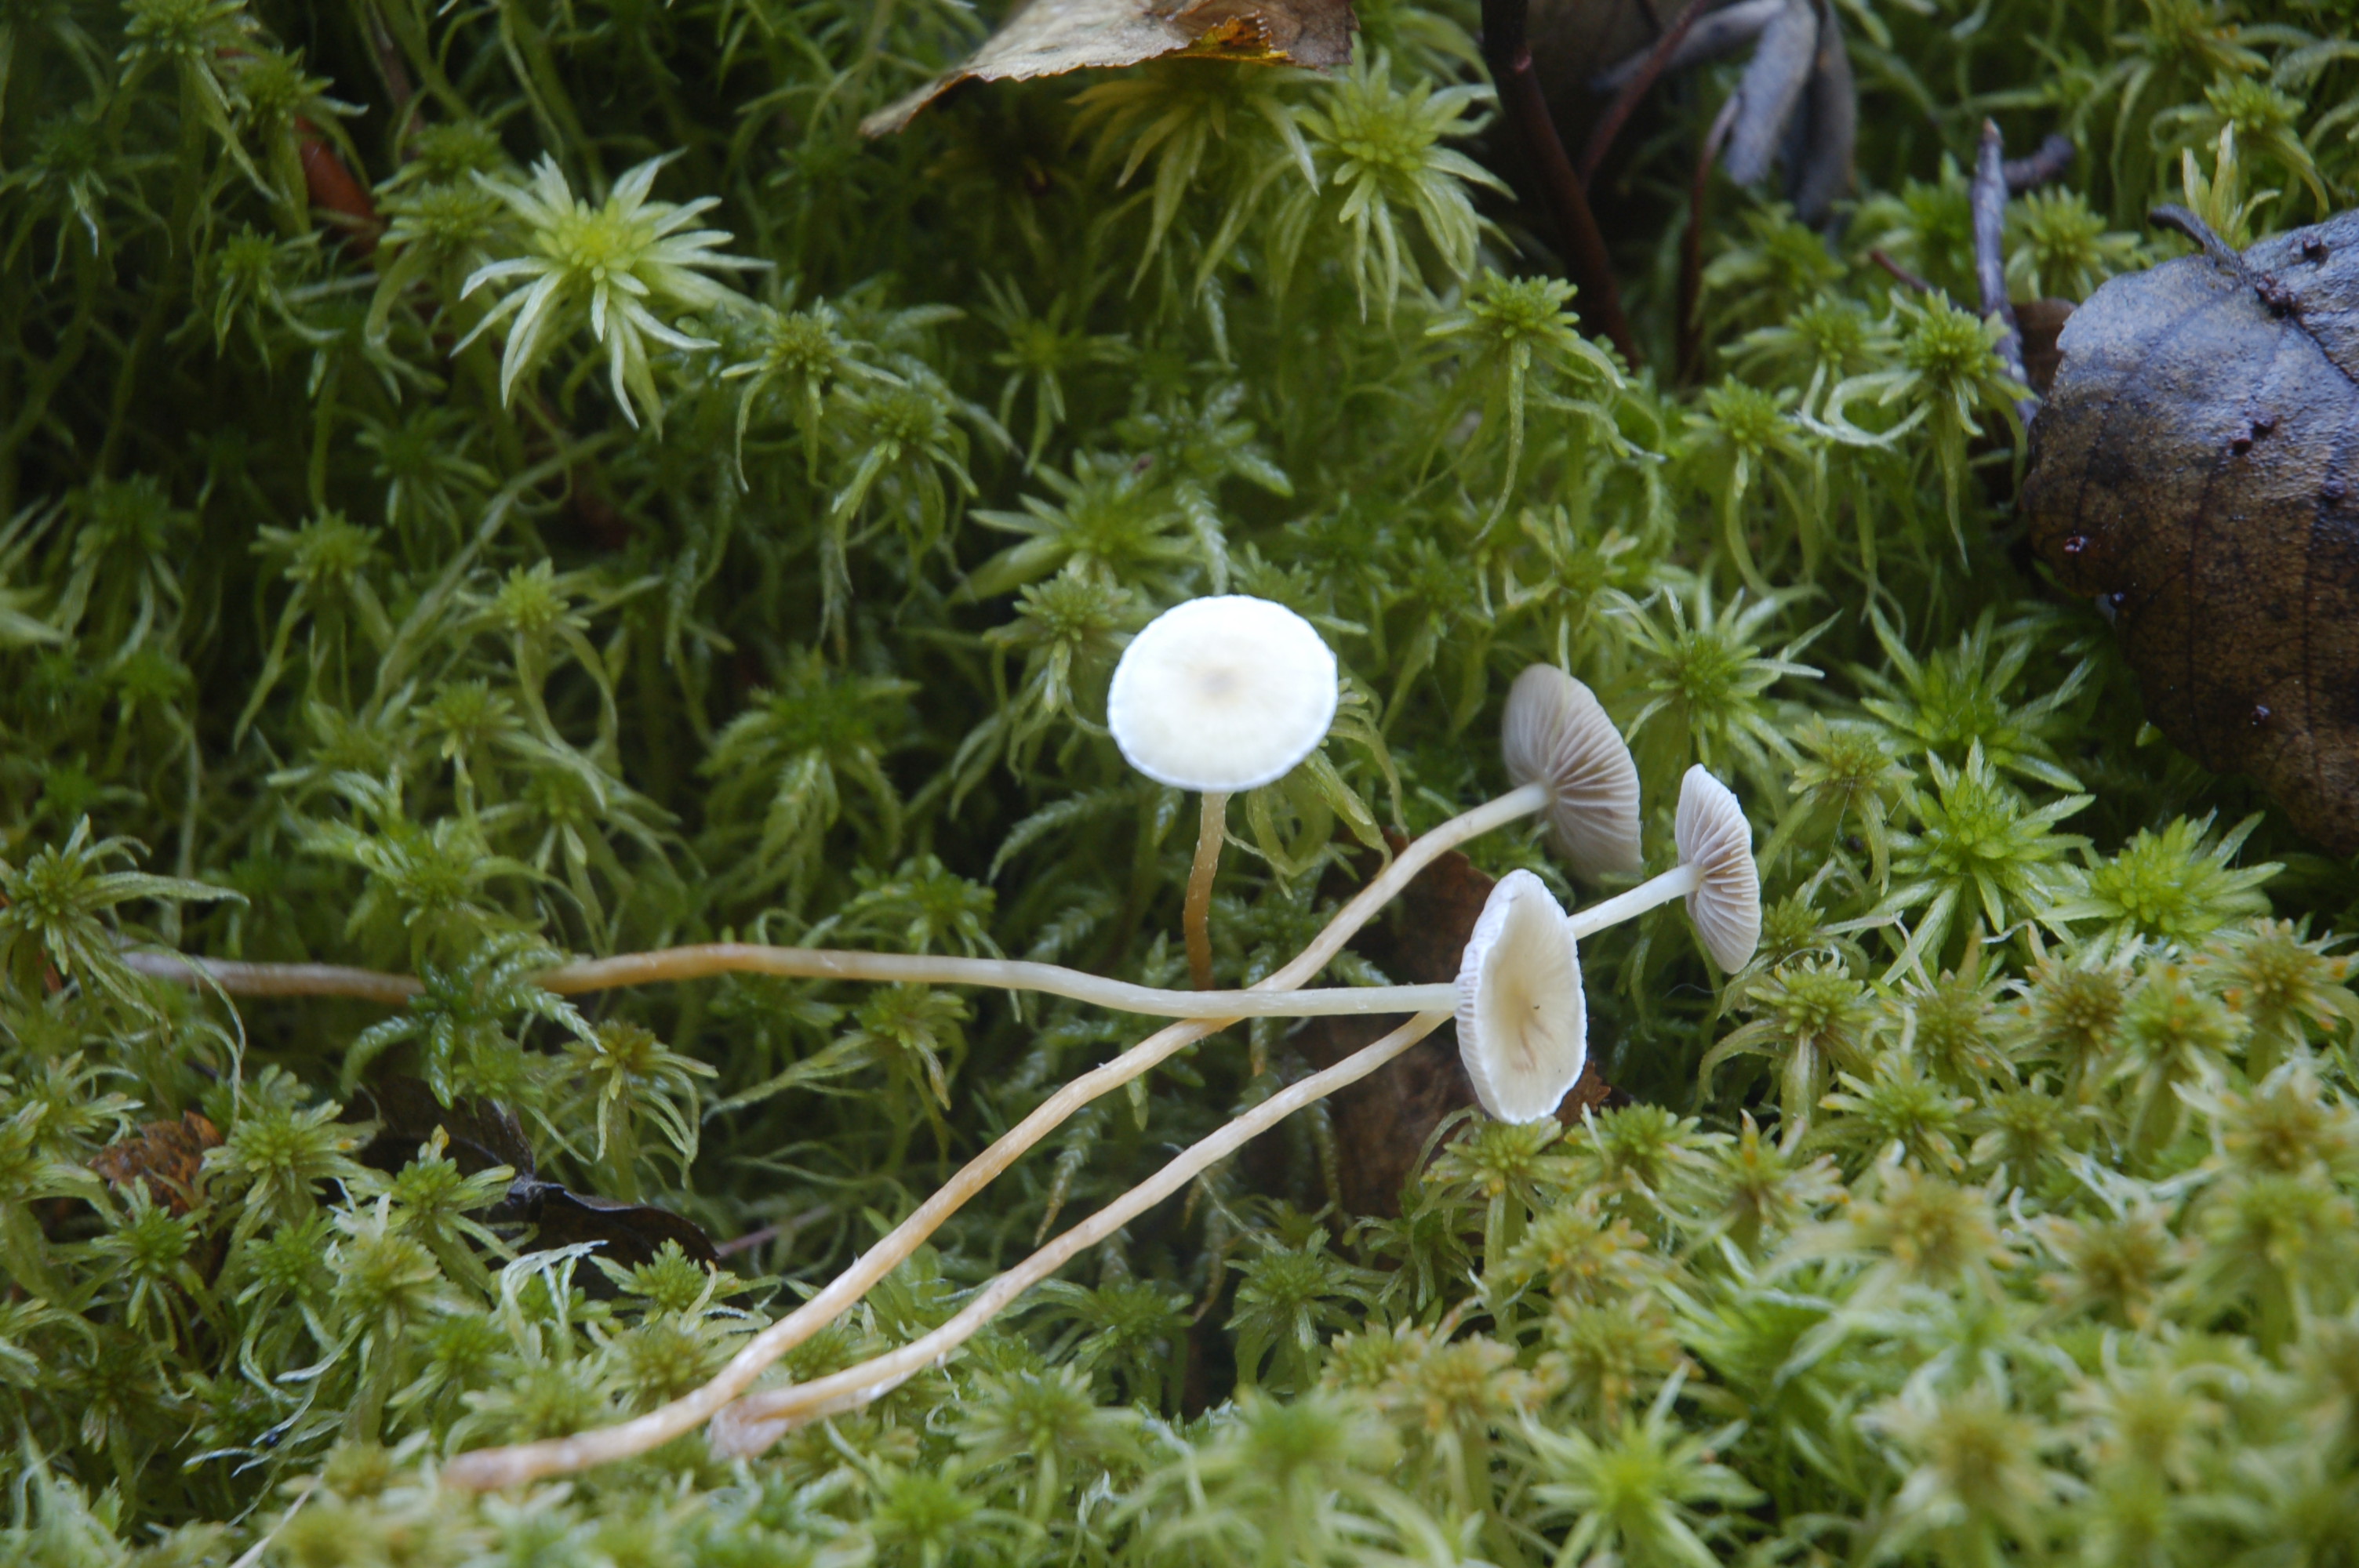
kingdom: Fungi
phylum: Basidiomycota
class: Agaricomycetes
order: Agaricales
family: Strophariaceae
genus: Hypholoma
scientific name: Hypholoma
